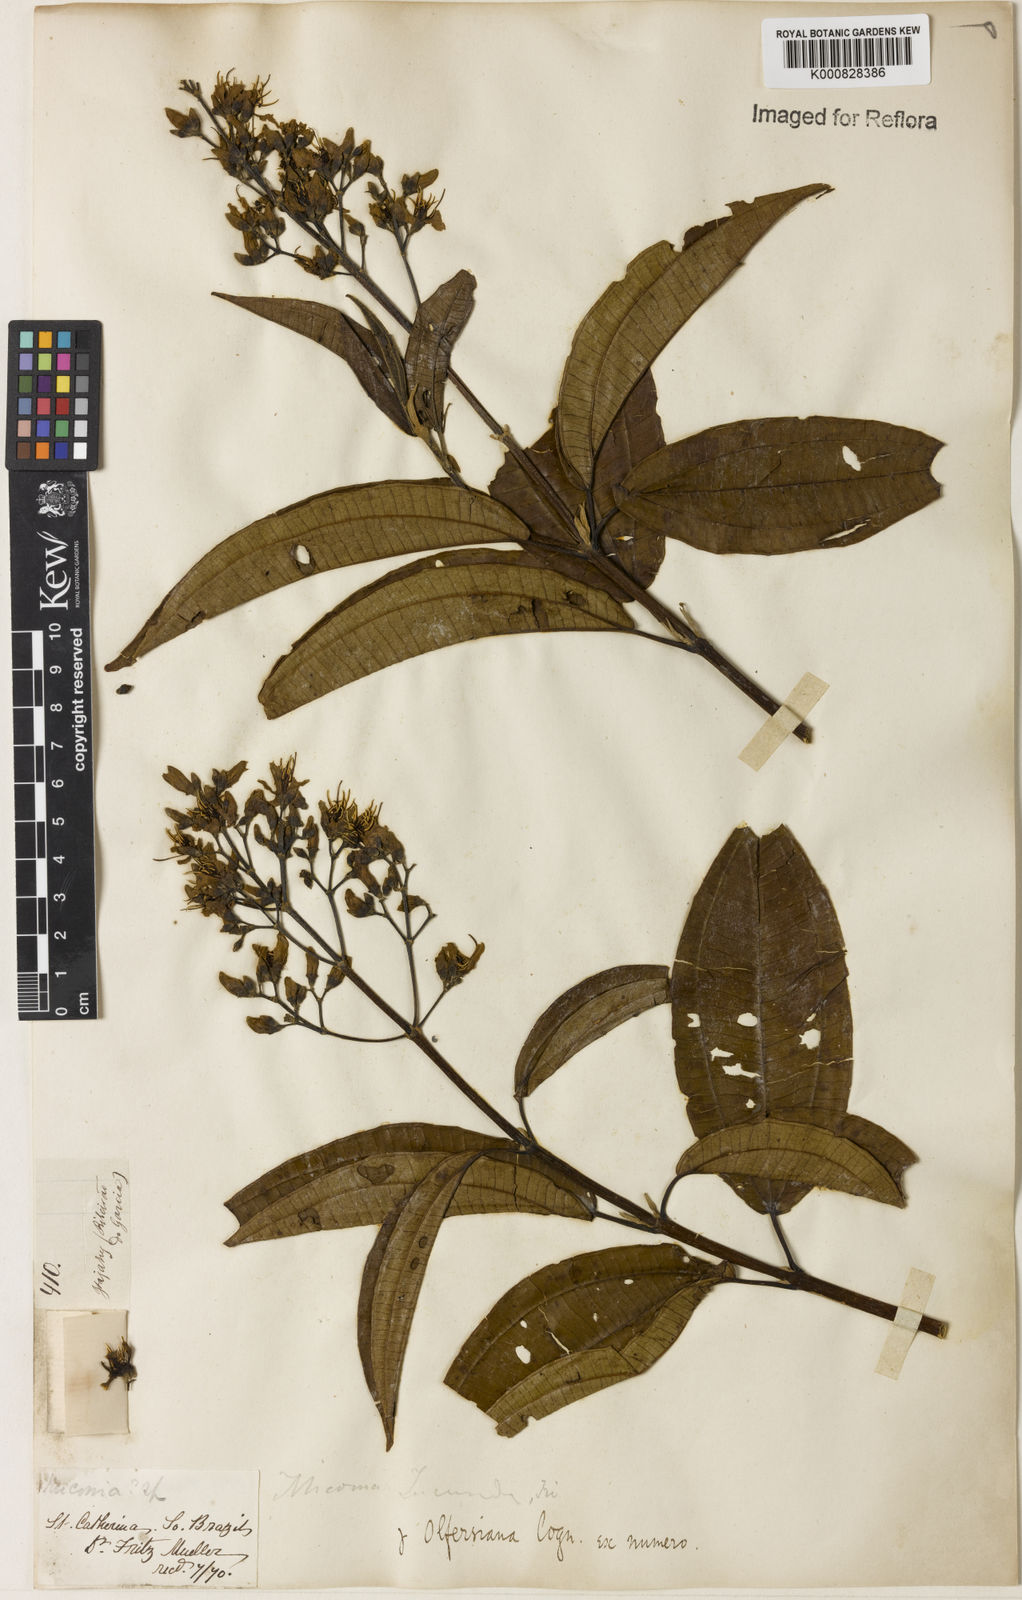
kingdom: Plantae
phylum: Tracheophyta
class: Magnoliopsida
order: Myrtales
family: Melastomataceae
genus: Miconia
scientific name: Miconia jucunda
